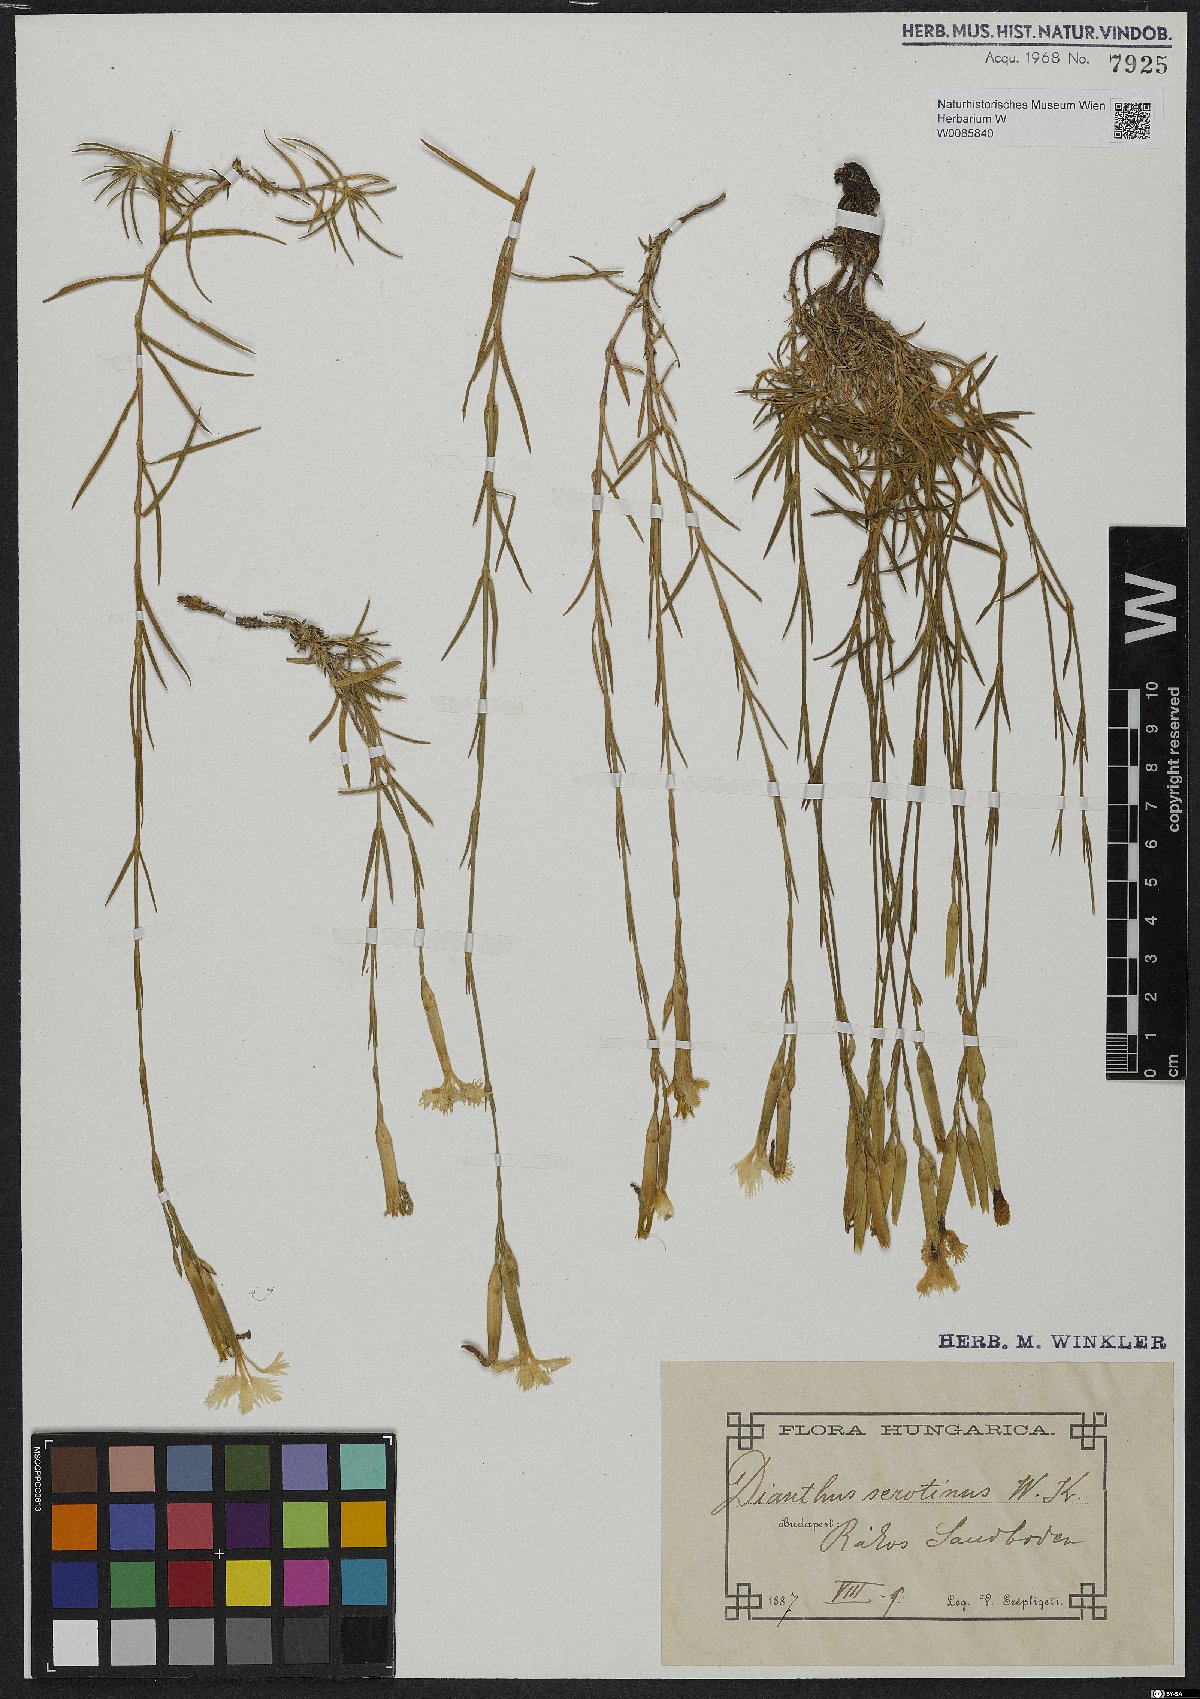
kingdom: Plantae
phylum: Tracheophyta
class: Magnoliopsida
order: Caryophyllales
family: Caryophyllaceae
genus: Dianthus
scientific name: Dianthus serotinus
